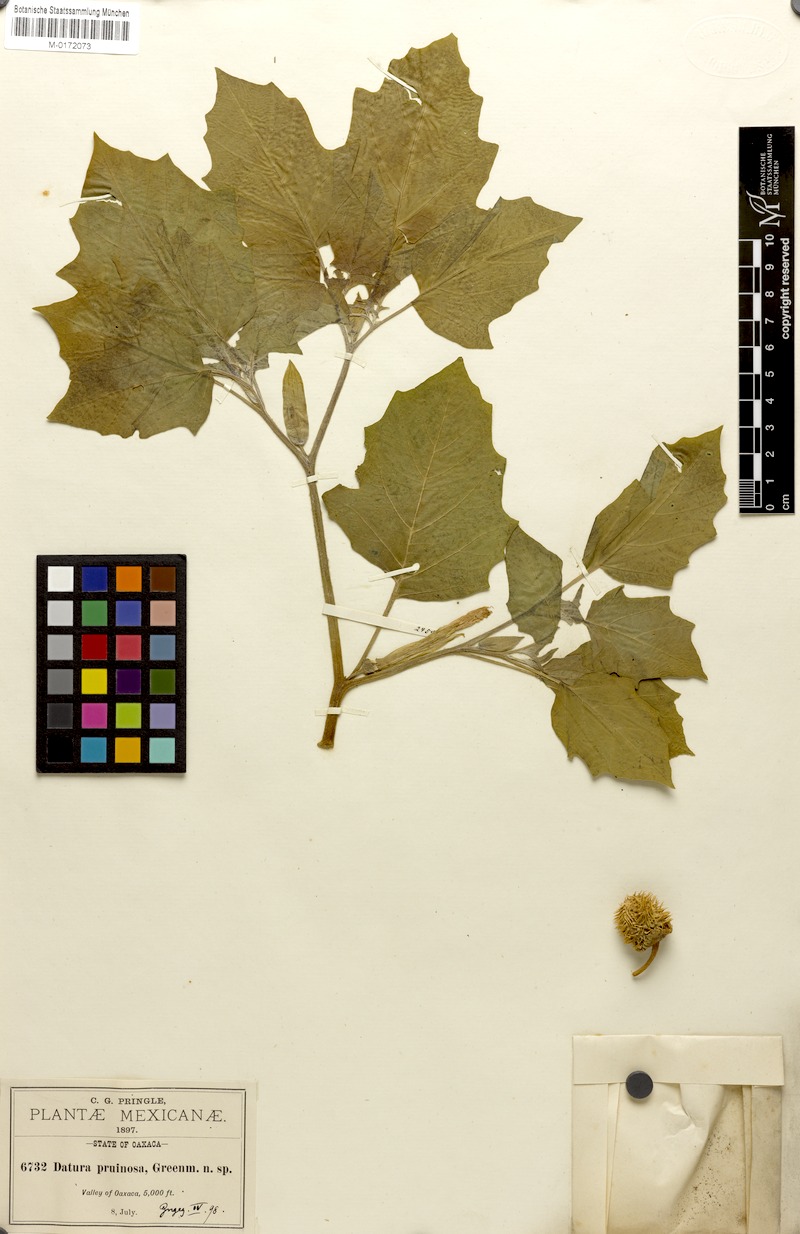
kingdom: Plantae
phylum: Tracheophyta
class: Magnoliopsida
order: Solanales
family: Solanaceae
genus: Datura
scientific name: Datura pruinosa
